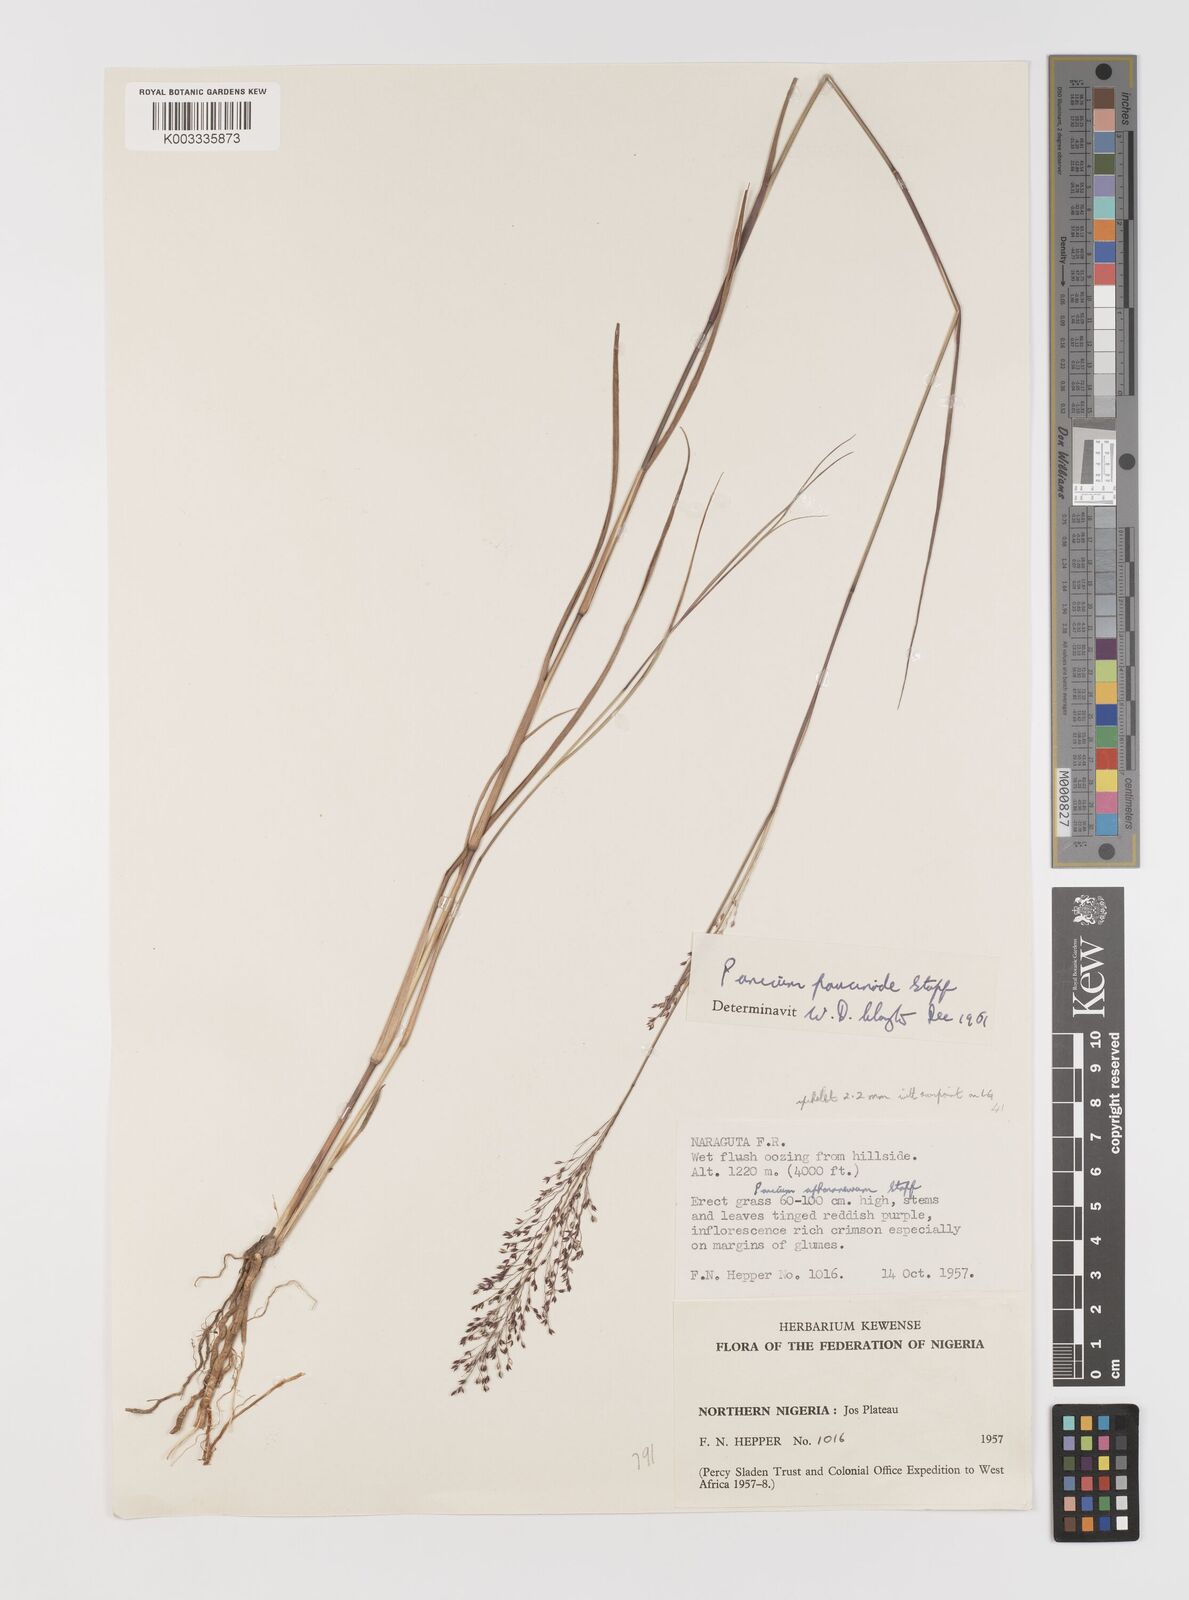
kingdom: Plantae
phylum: Tracheophyta
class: Liliopsida
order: Poales
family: Poaceae
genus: Panicum
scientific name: Panicum paucinode
